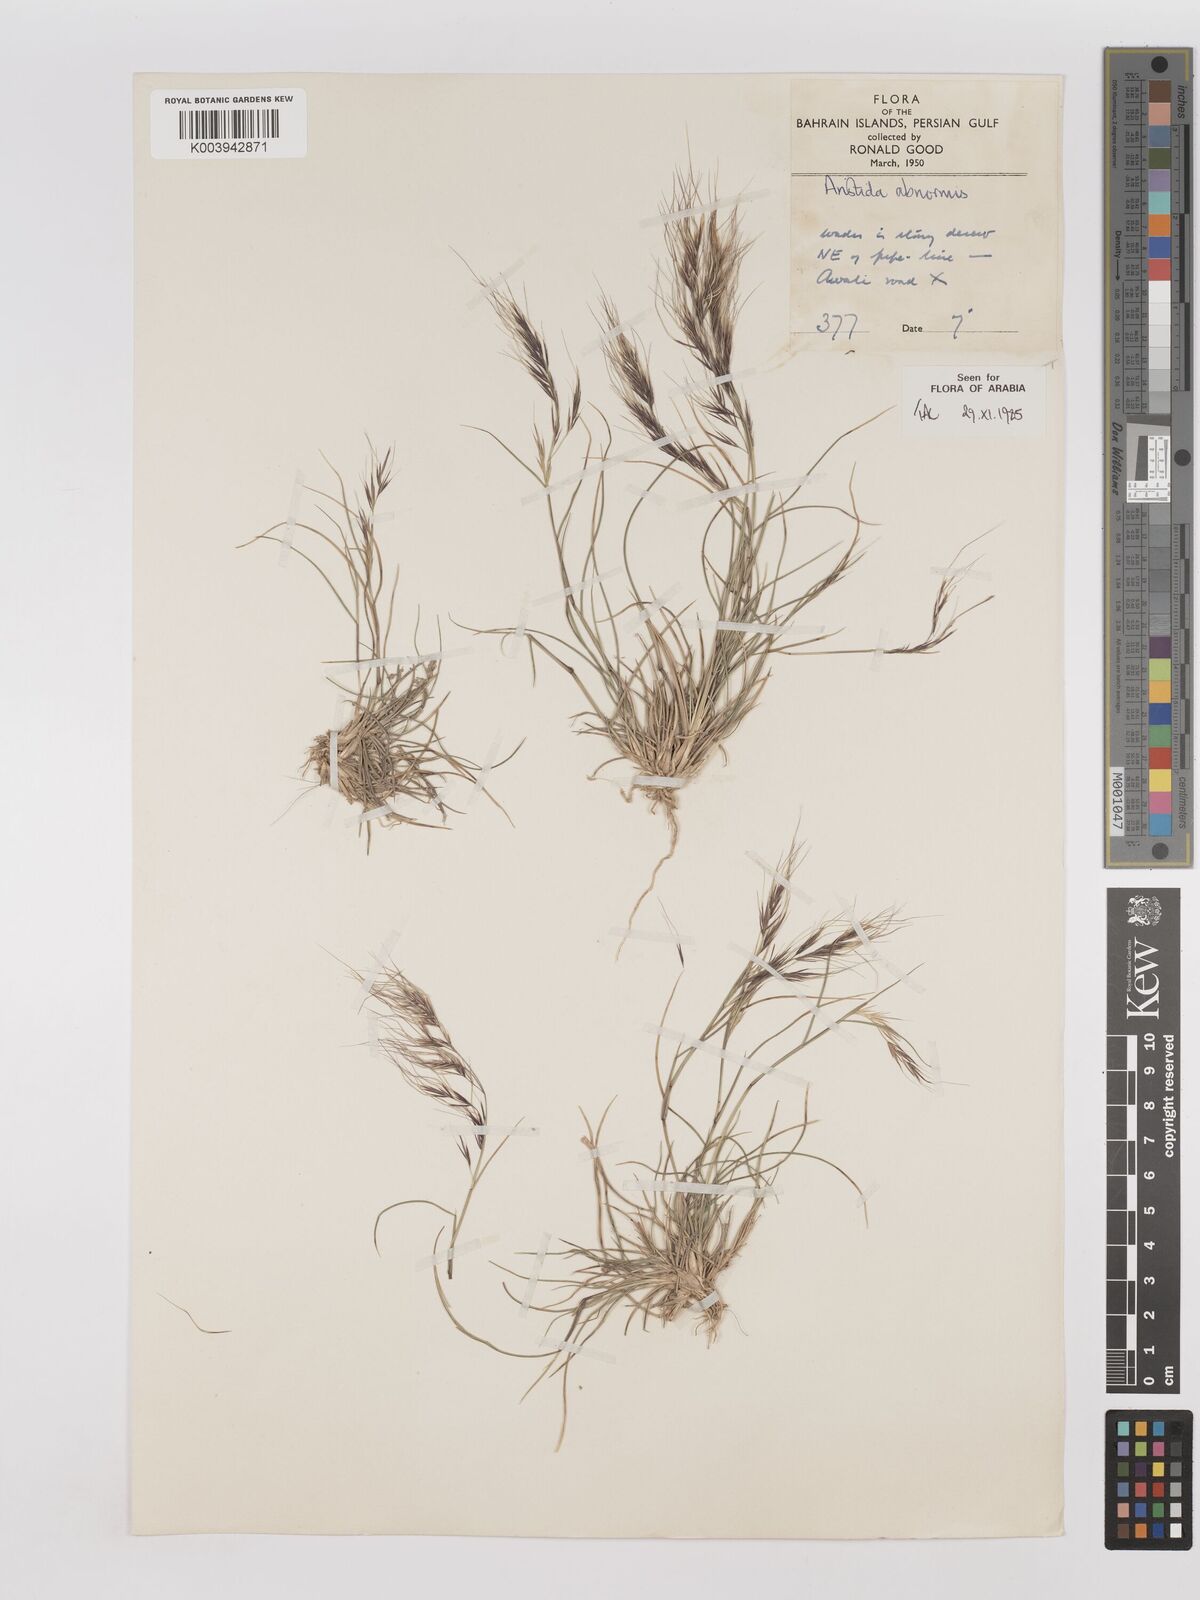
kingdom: Plantae
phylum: Tracheophyta
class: Liliopsida
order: Poales
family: Poaceae
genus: Aristida
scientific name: Aristida abnormis
